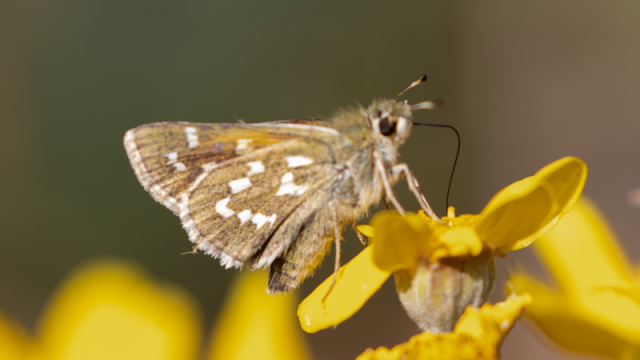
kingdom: Animalia
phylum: Arthropoda
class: Insecta
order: Lepidoptera
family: Hesperiidae
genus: Hesperia
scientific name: Hesperia comma
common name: Common Branded Skipper
